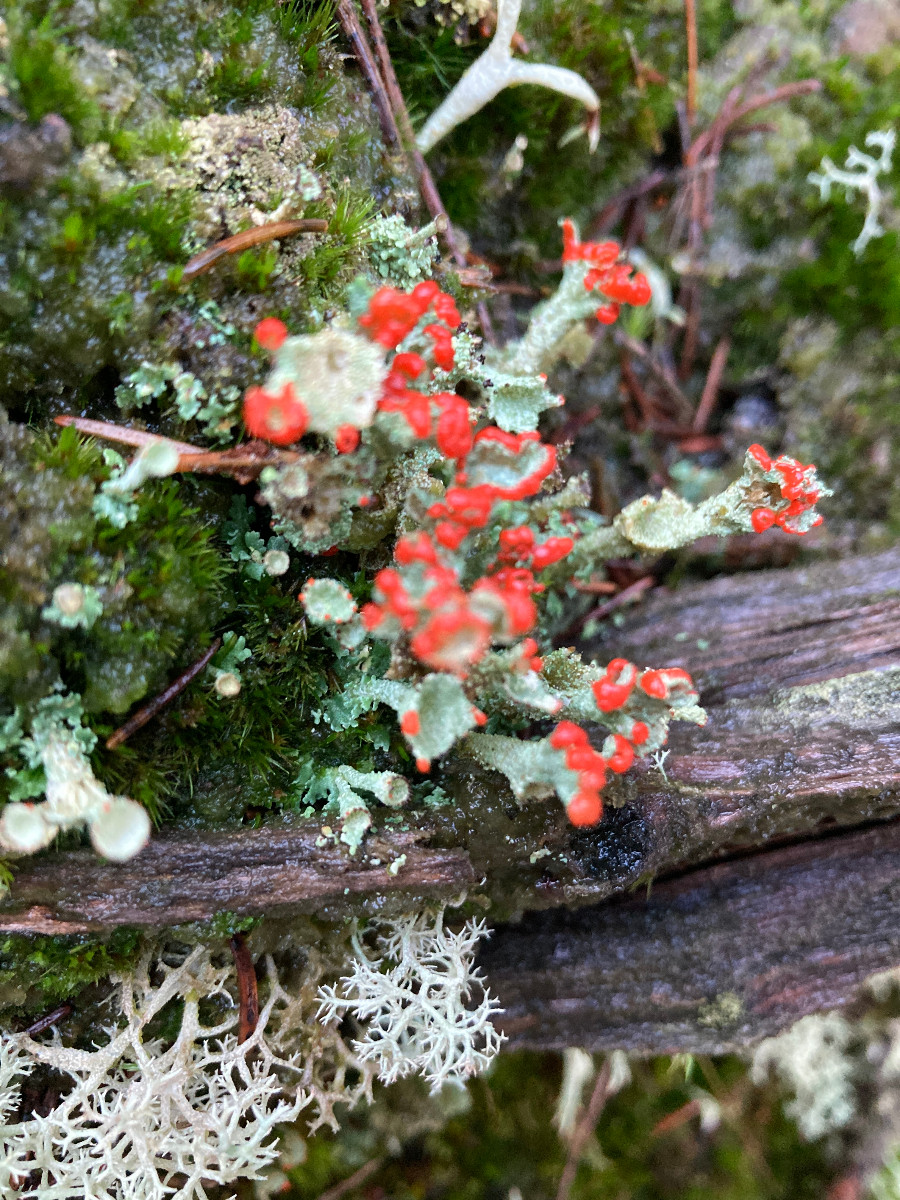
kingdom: Fungi
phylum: Ascomycota
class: Lecanoromycetes
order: Lecanorales
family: Cladoniaceae
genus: Cladonia
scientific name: Cladonia diversa
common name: rød bægerlav
